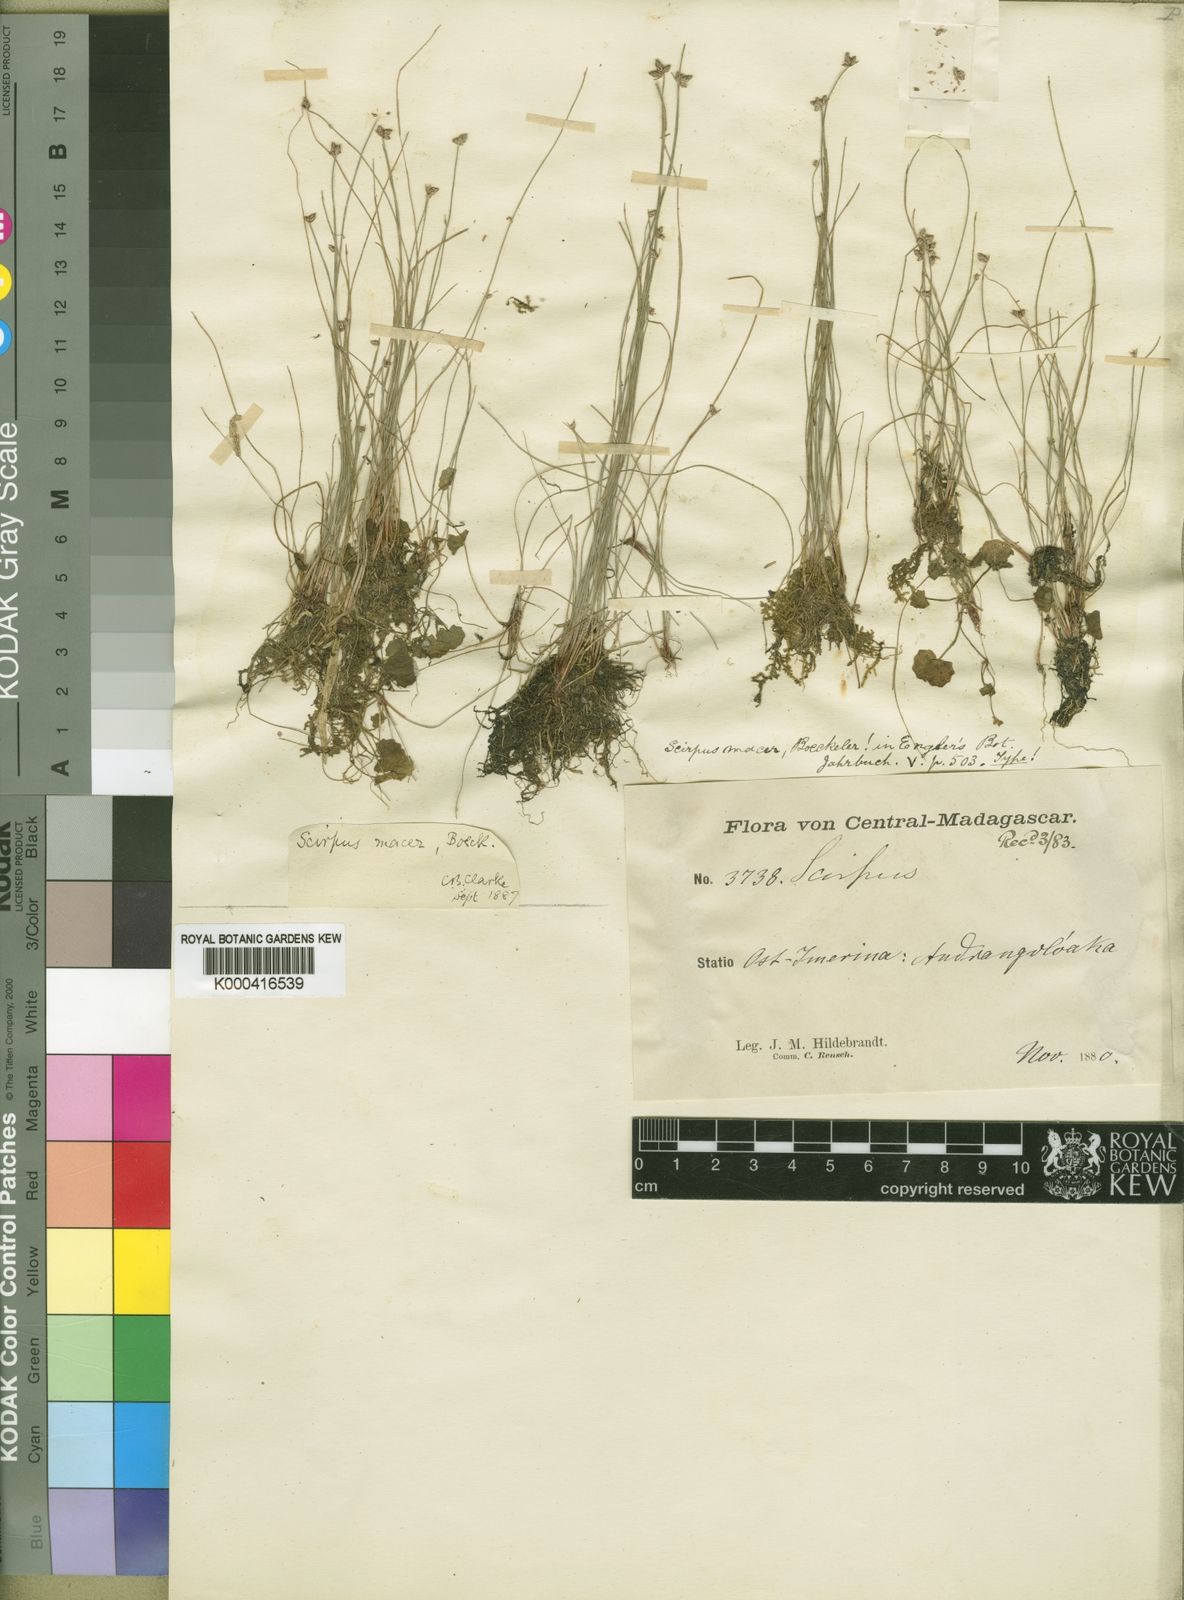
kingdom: Plantae
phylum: Tracheophyta
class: Liliopsida
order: Poales
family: Cyperaceae
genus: Isolepis
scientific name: Isolepis costata
